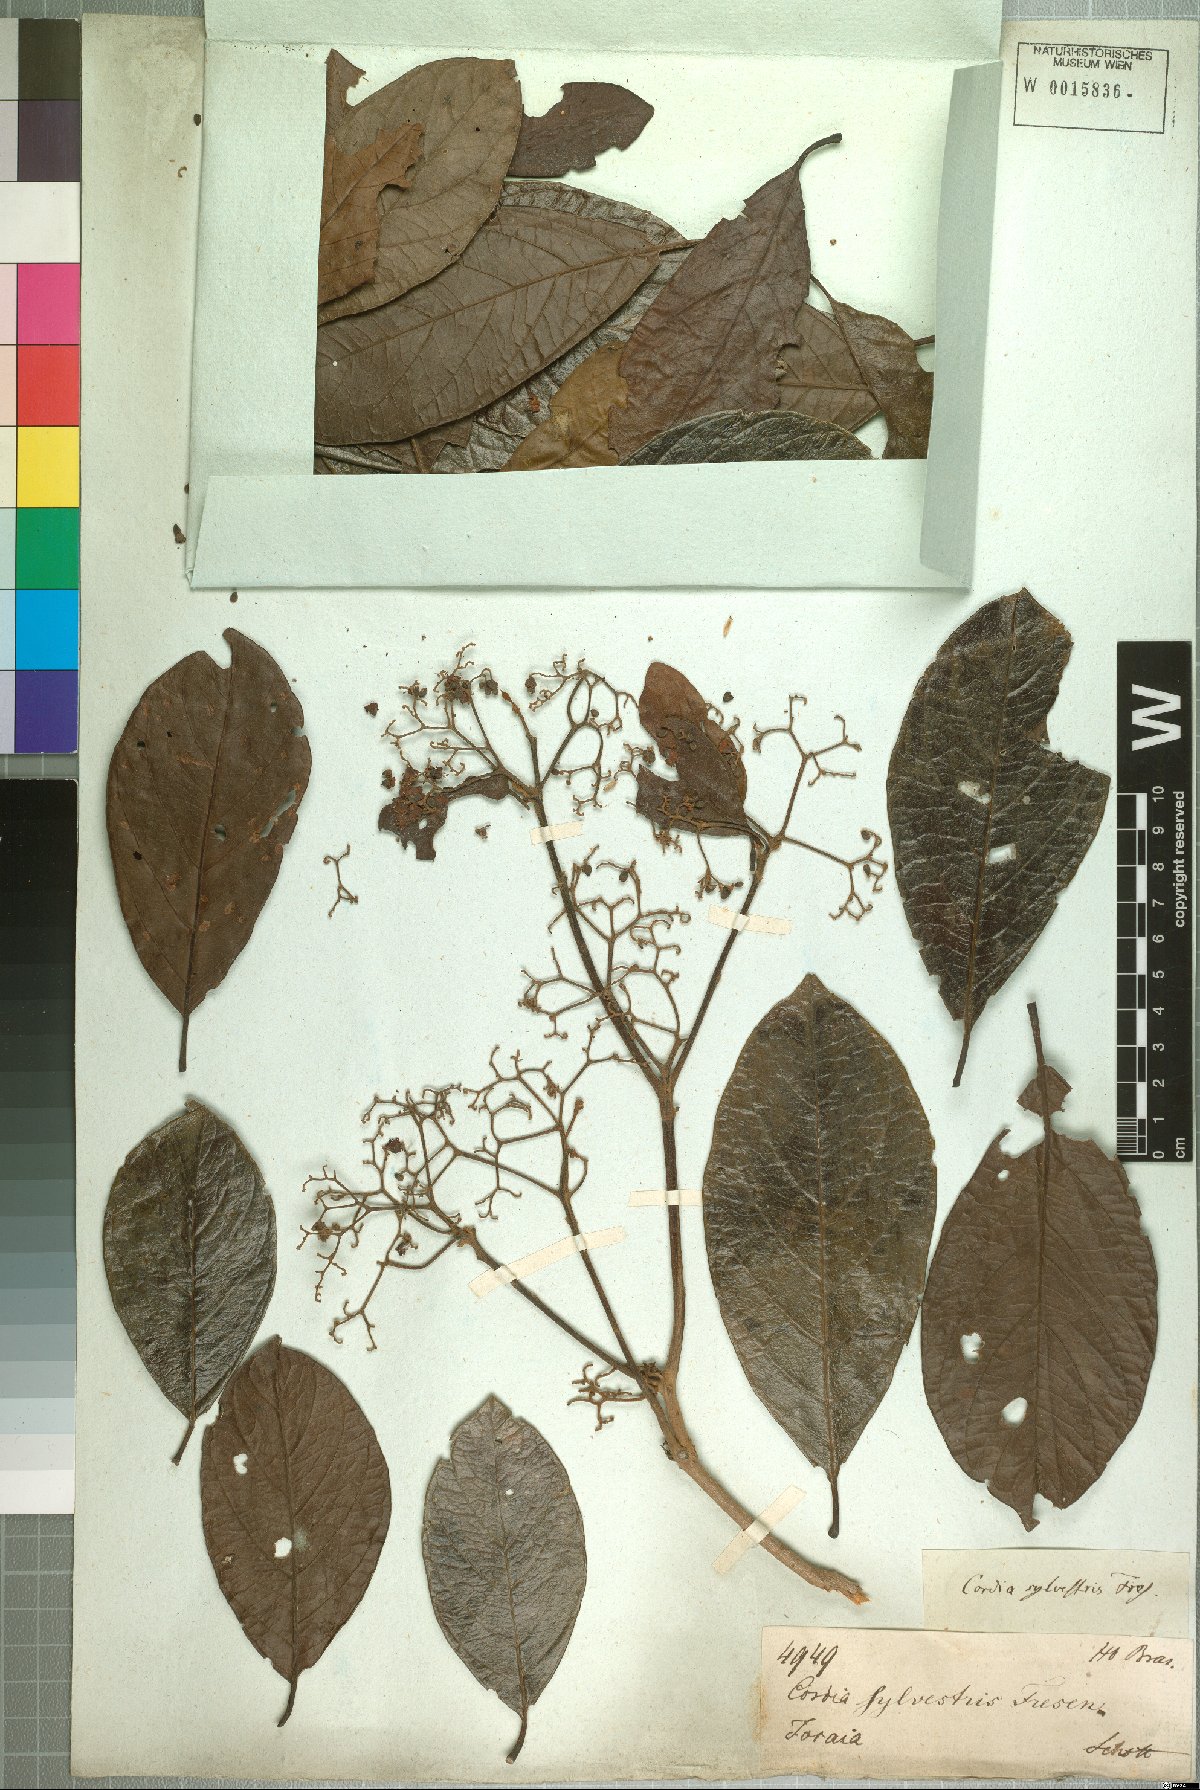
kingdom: Plantae
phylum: Tracheophyta
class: Magnoliopsida
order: Boraginales
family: Cordiaceae
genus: Cordia
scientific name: Cordia silvestris
